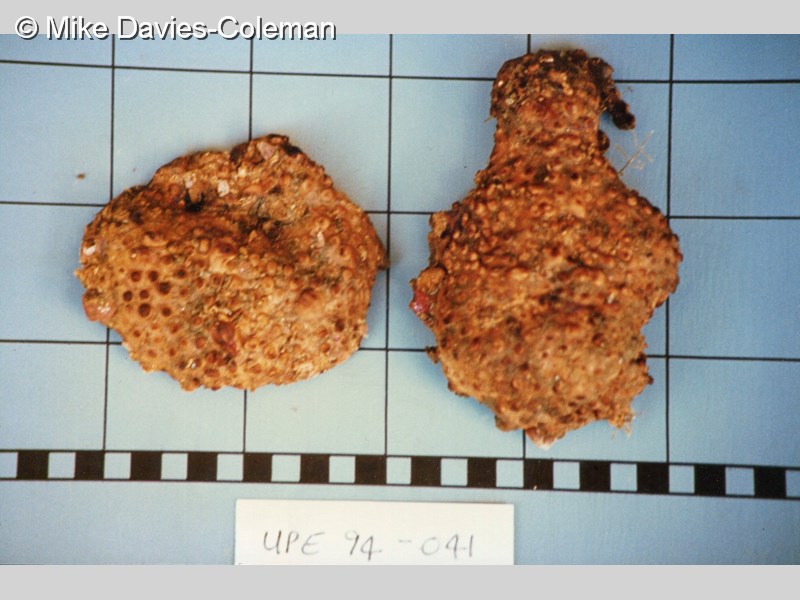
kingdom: Animalia
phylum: Porifera
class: Demospongiae
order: Poecilosclerida
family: Crellidae
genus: Crella
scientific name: Crella erecta
